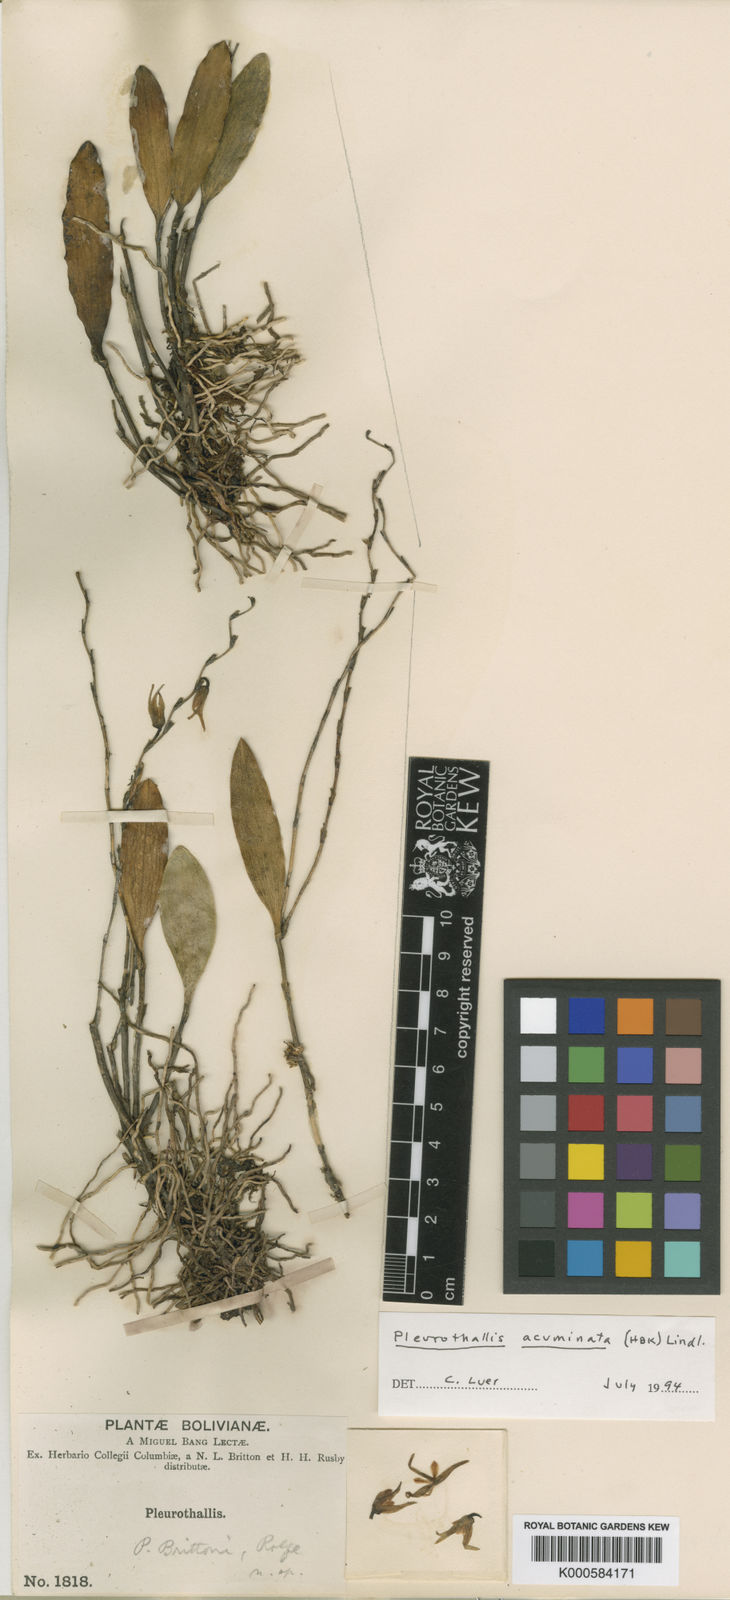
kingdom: Plantae
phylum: Tracheophyta
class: Liliopsida
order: Asparagales
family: Orchidaceae
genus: Stelis
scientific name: Stelis aurea
